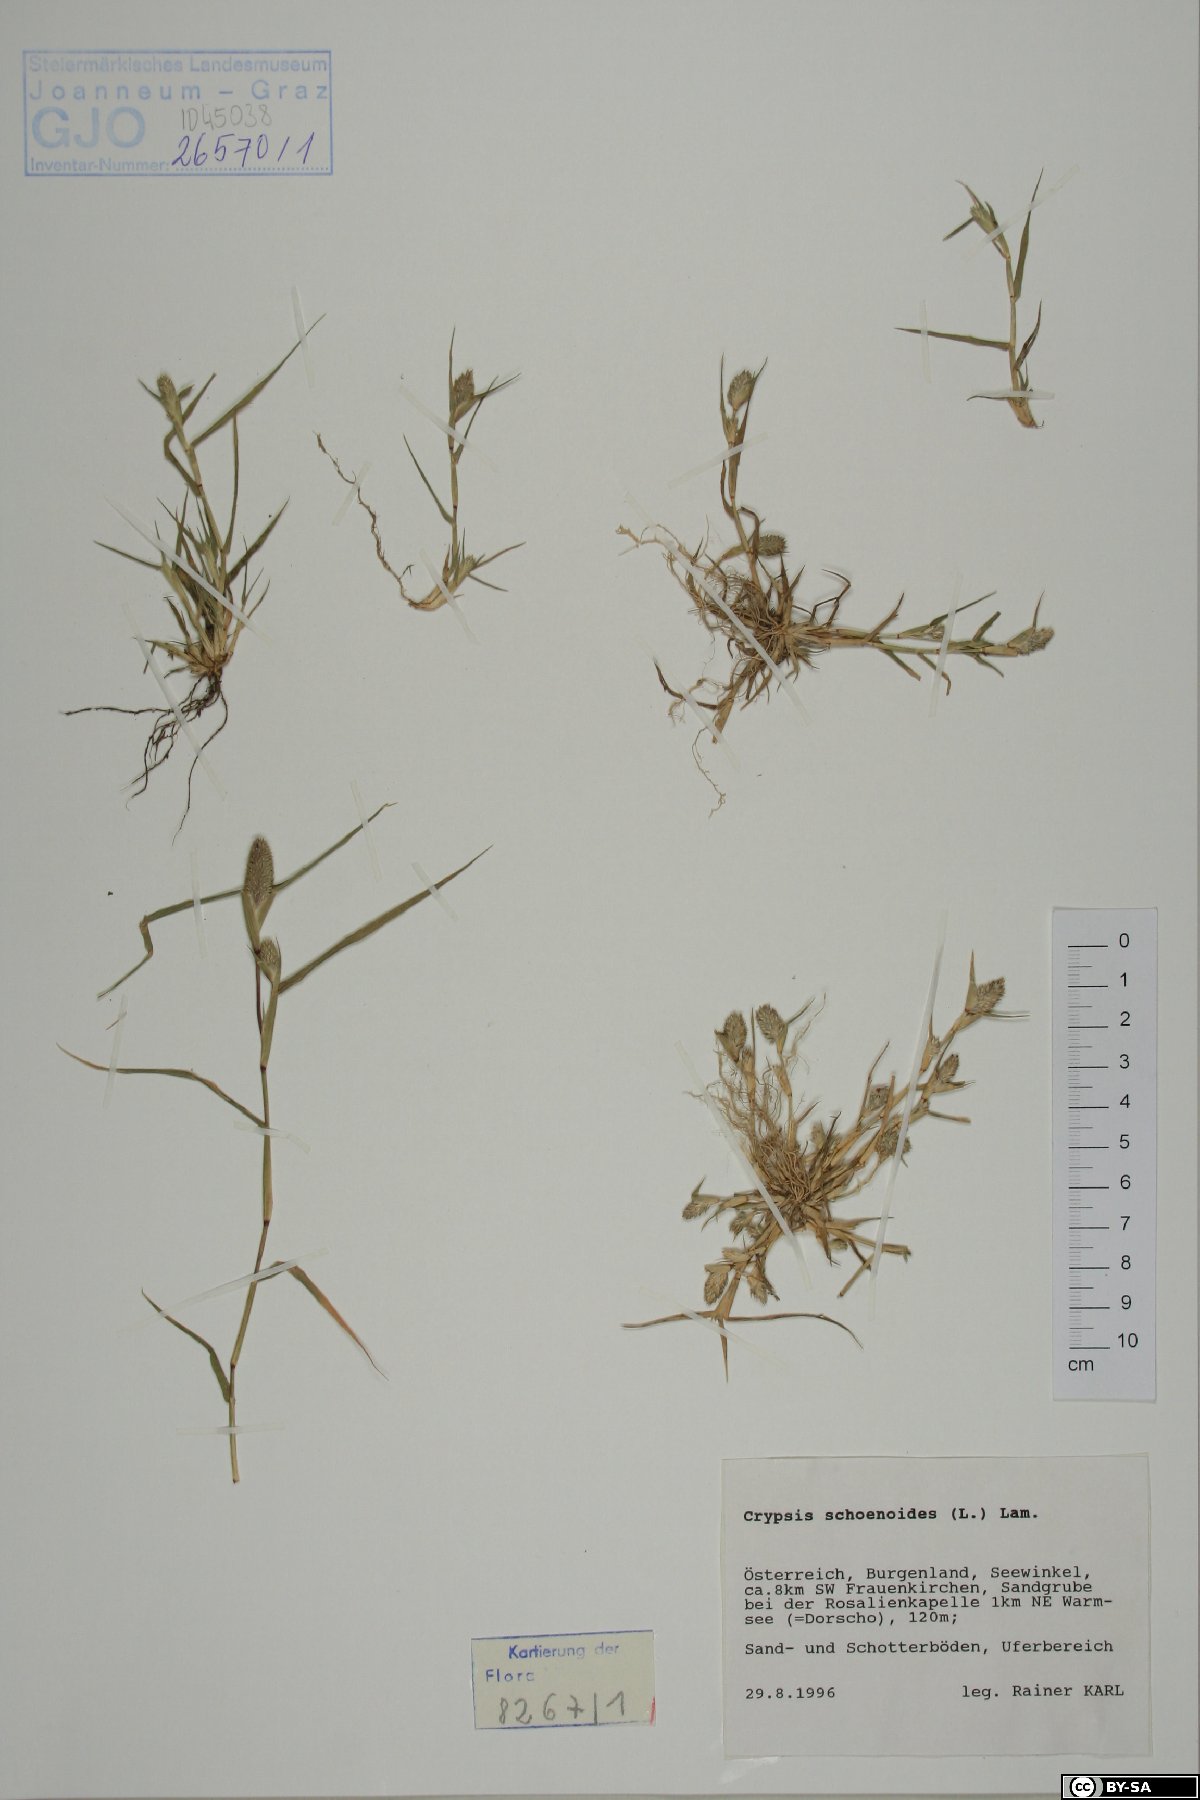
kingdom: Plantae
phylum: Tracheophyta
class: Liliopsida
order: Poales
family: Poaceae
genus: Sporobolus
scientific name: Sporobolus schoenoides
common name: Rush-like timothy
